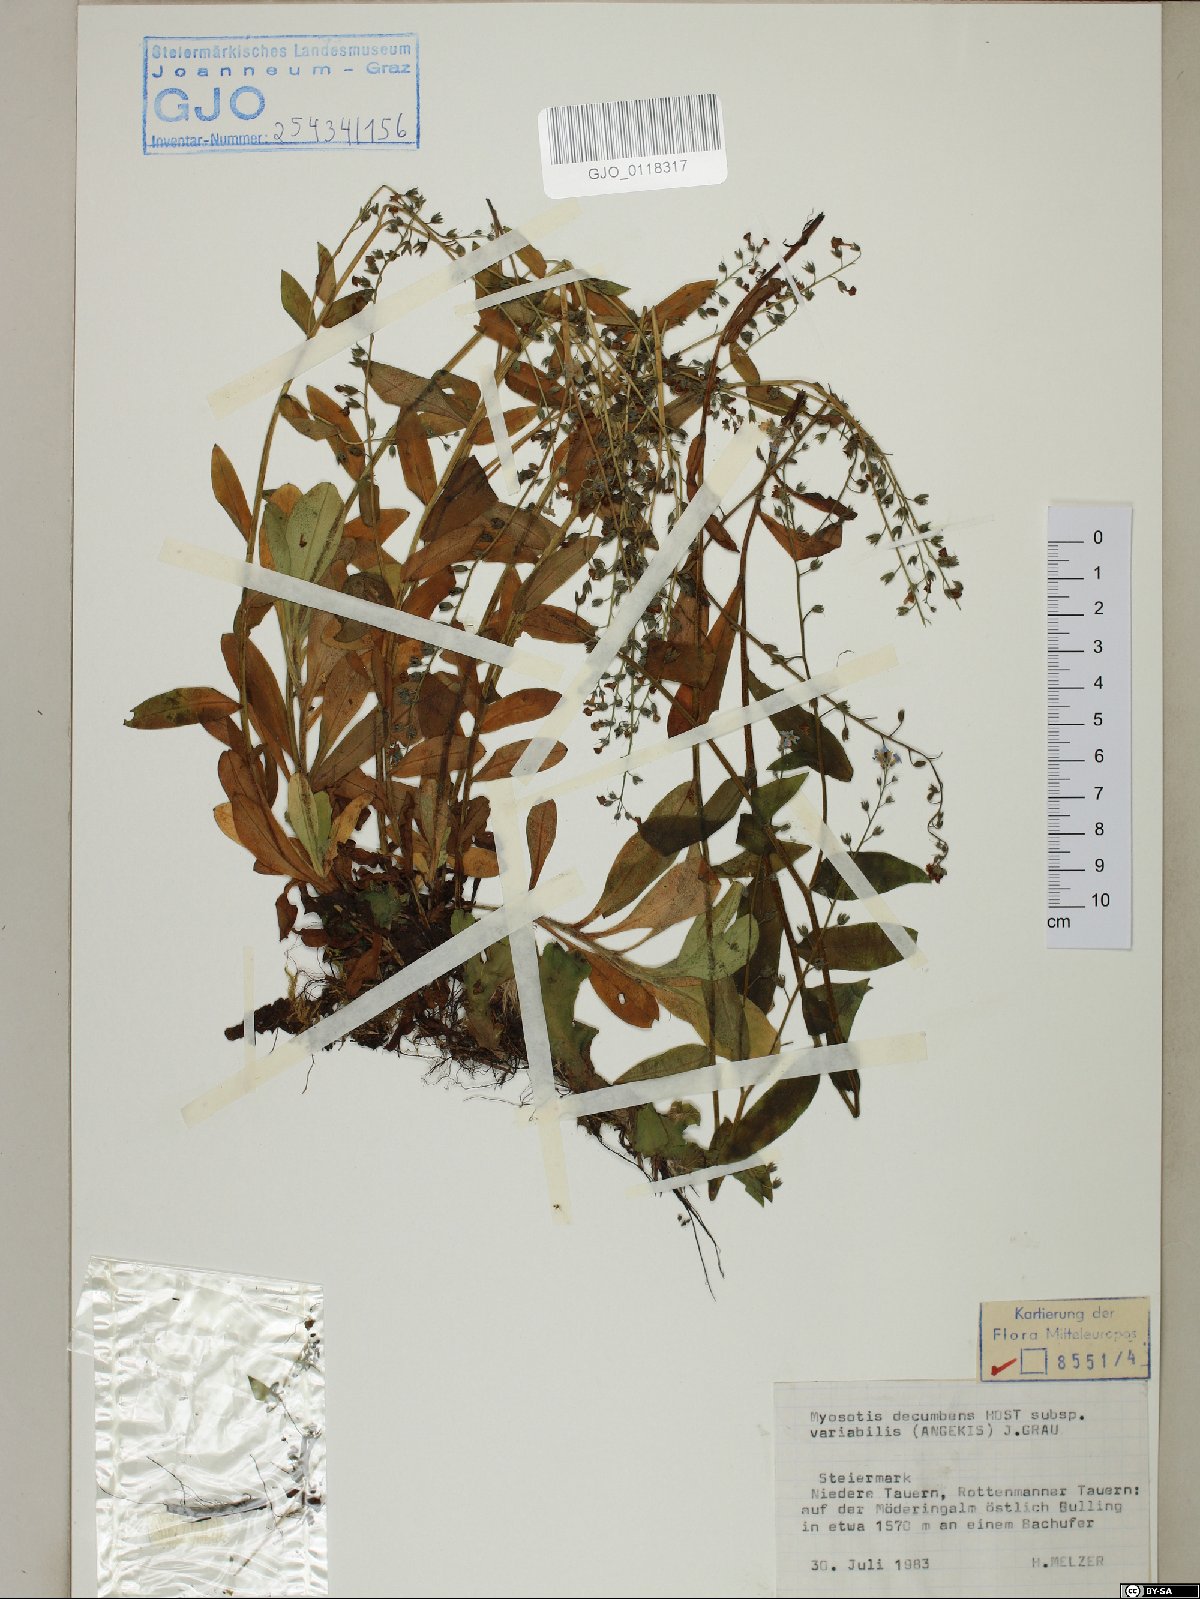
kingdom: Plantae
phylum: Tracheophyta
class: Magnoliopsida
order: Boraginales
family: Boraginaceae
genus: Myosotis
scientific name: Myosotis decumbens
